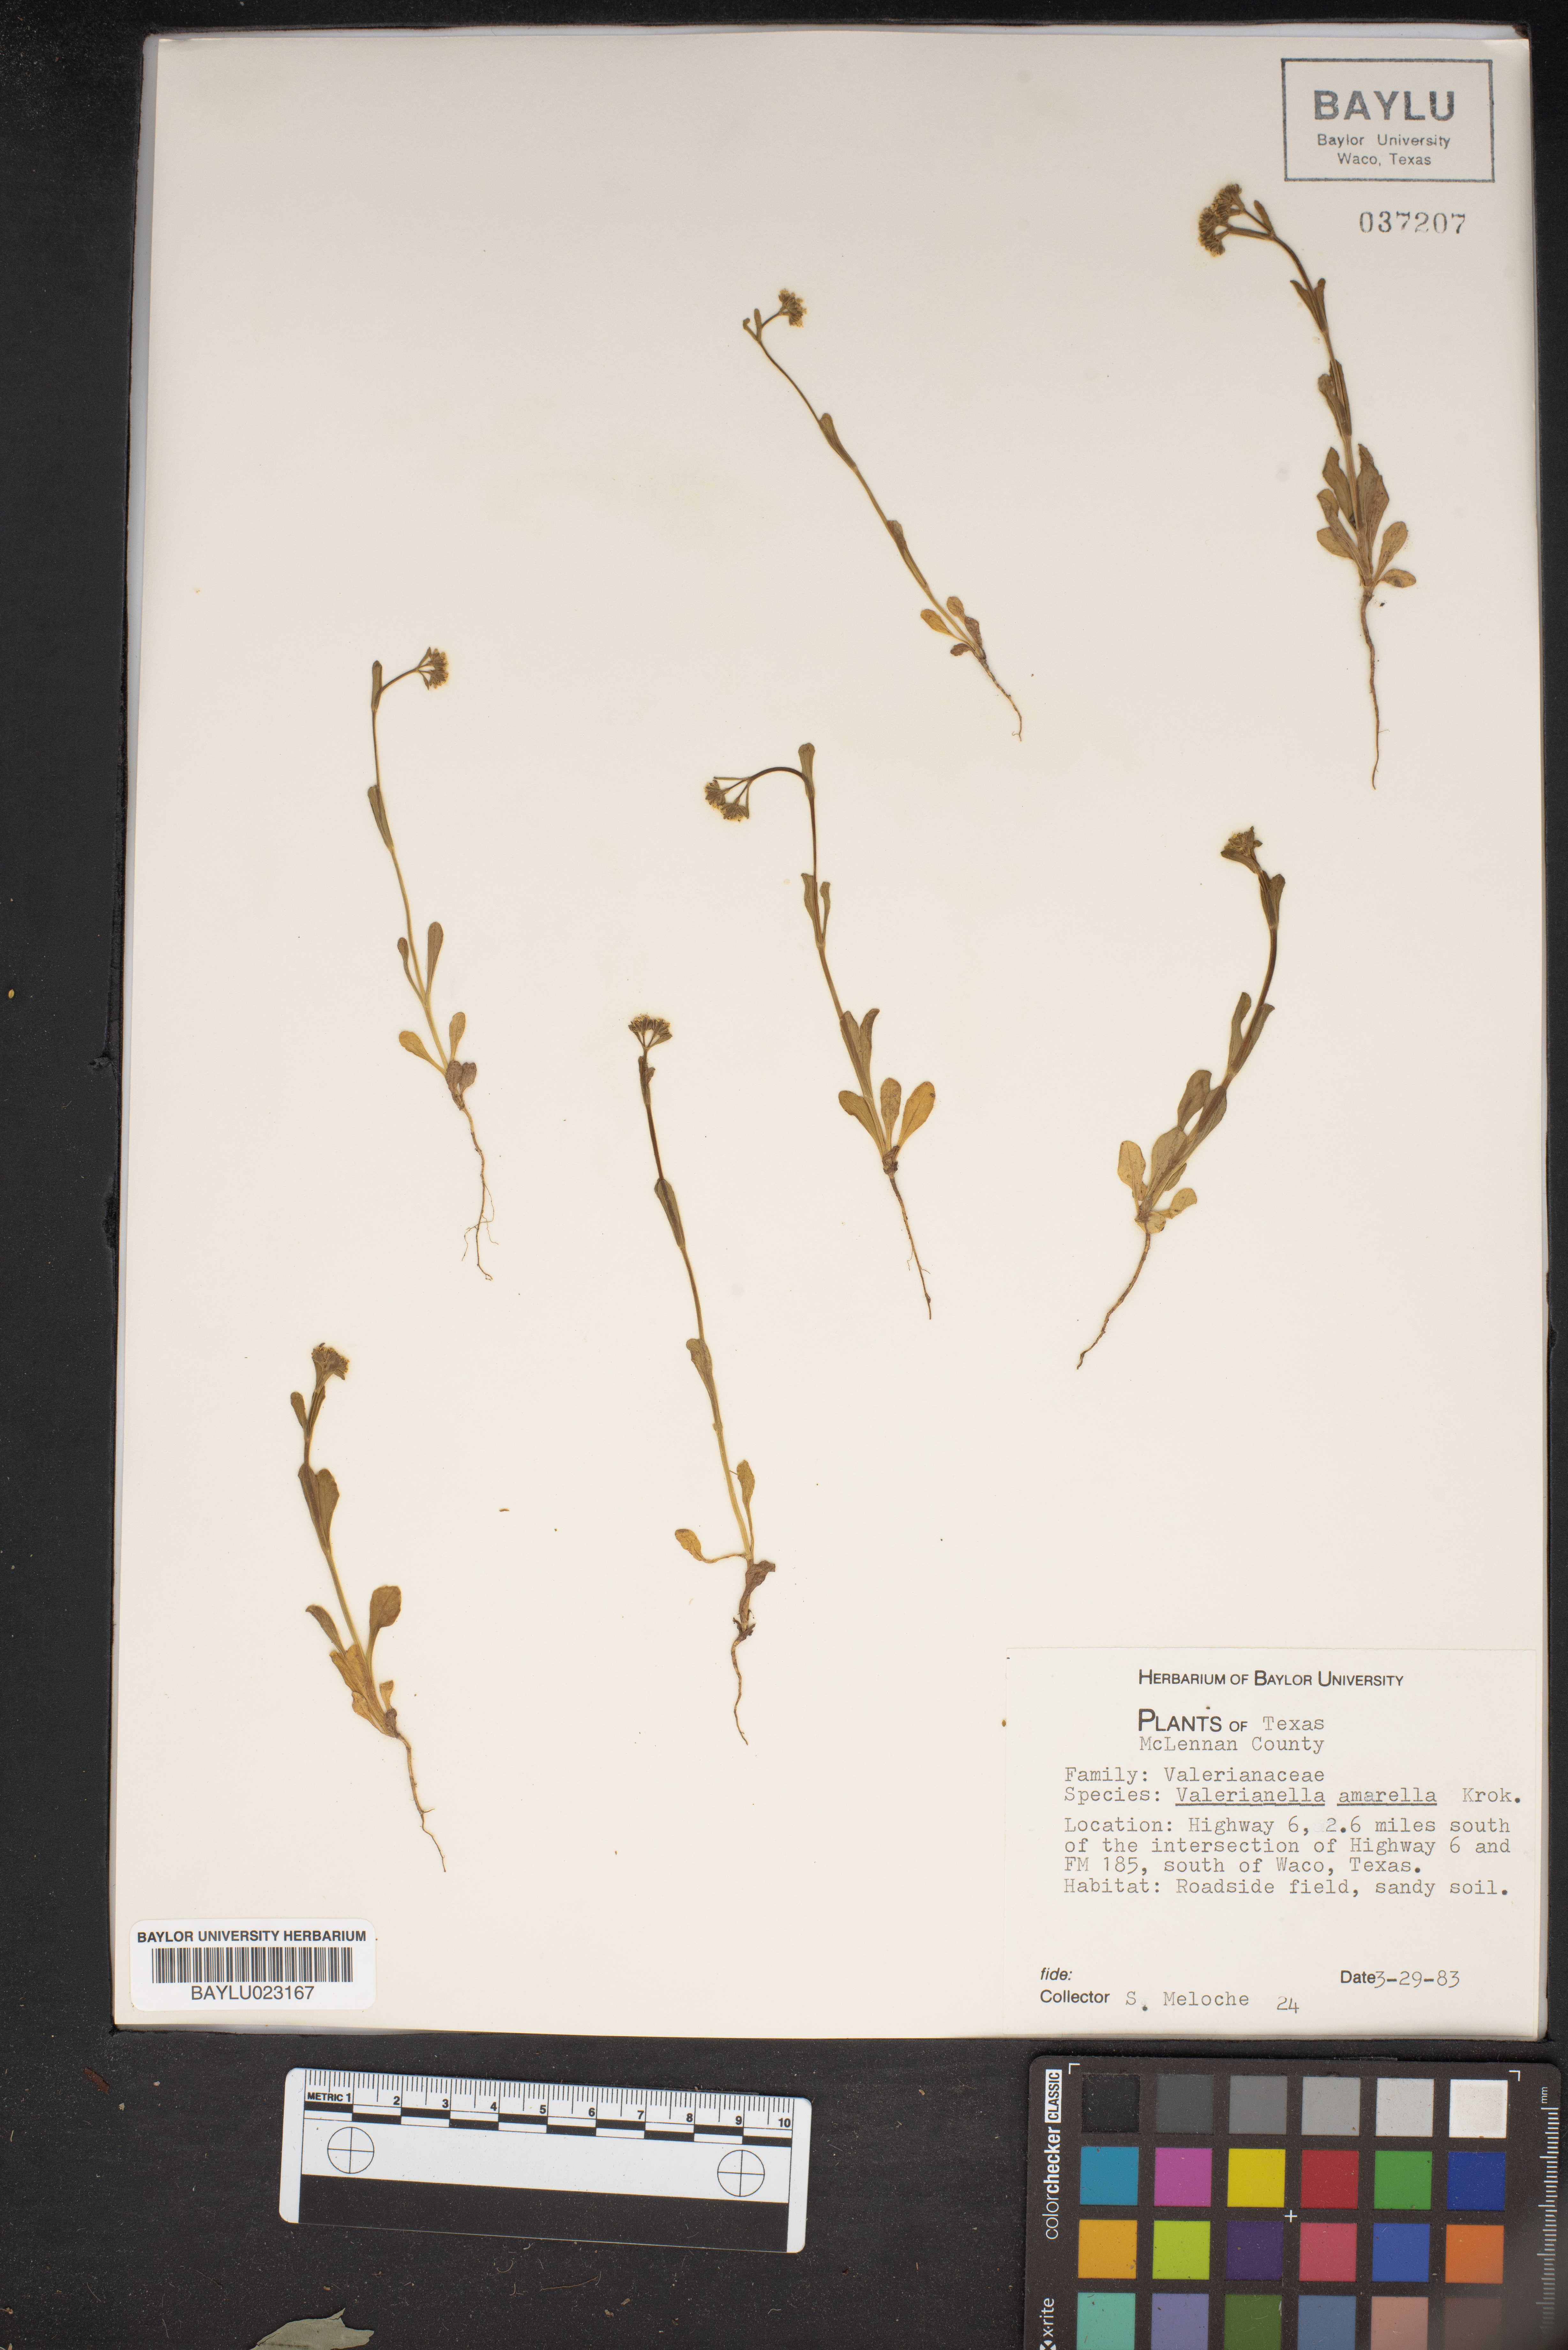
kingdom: Plantae
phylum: Tracheophyta
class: Magnoliopsida
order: Dipsacales
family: Caprifoliaceae
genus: Valerianella
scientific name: Valerianella amarella
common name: Hariy cornsalad
